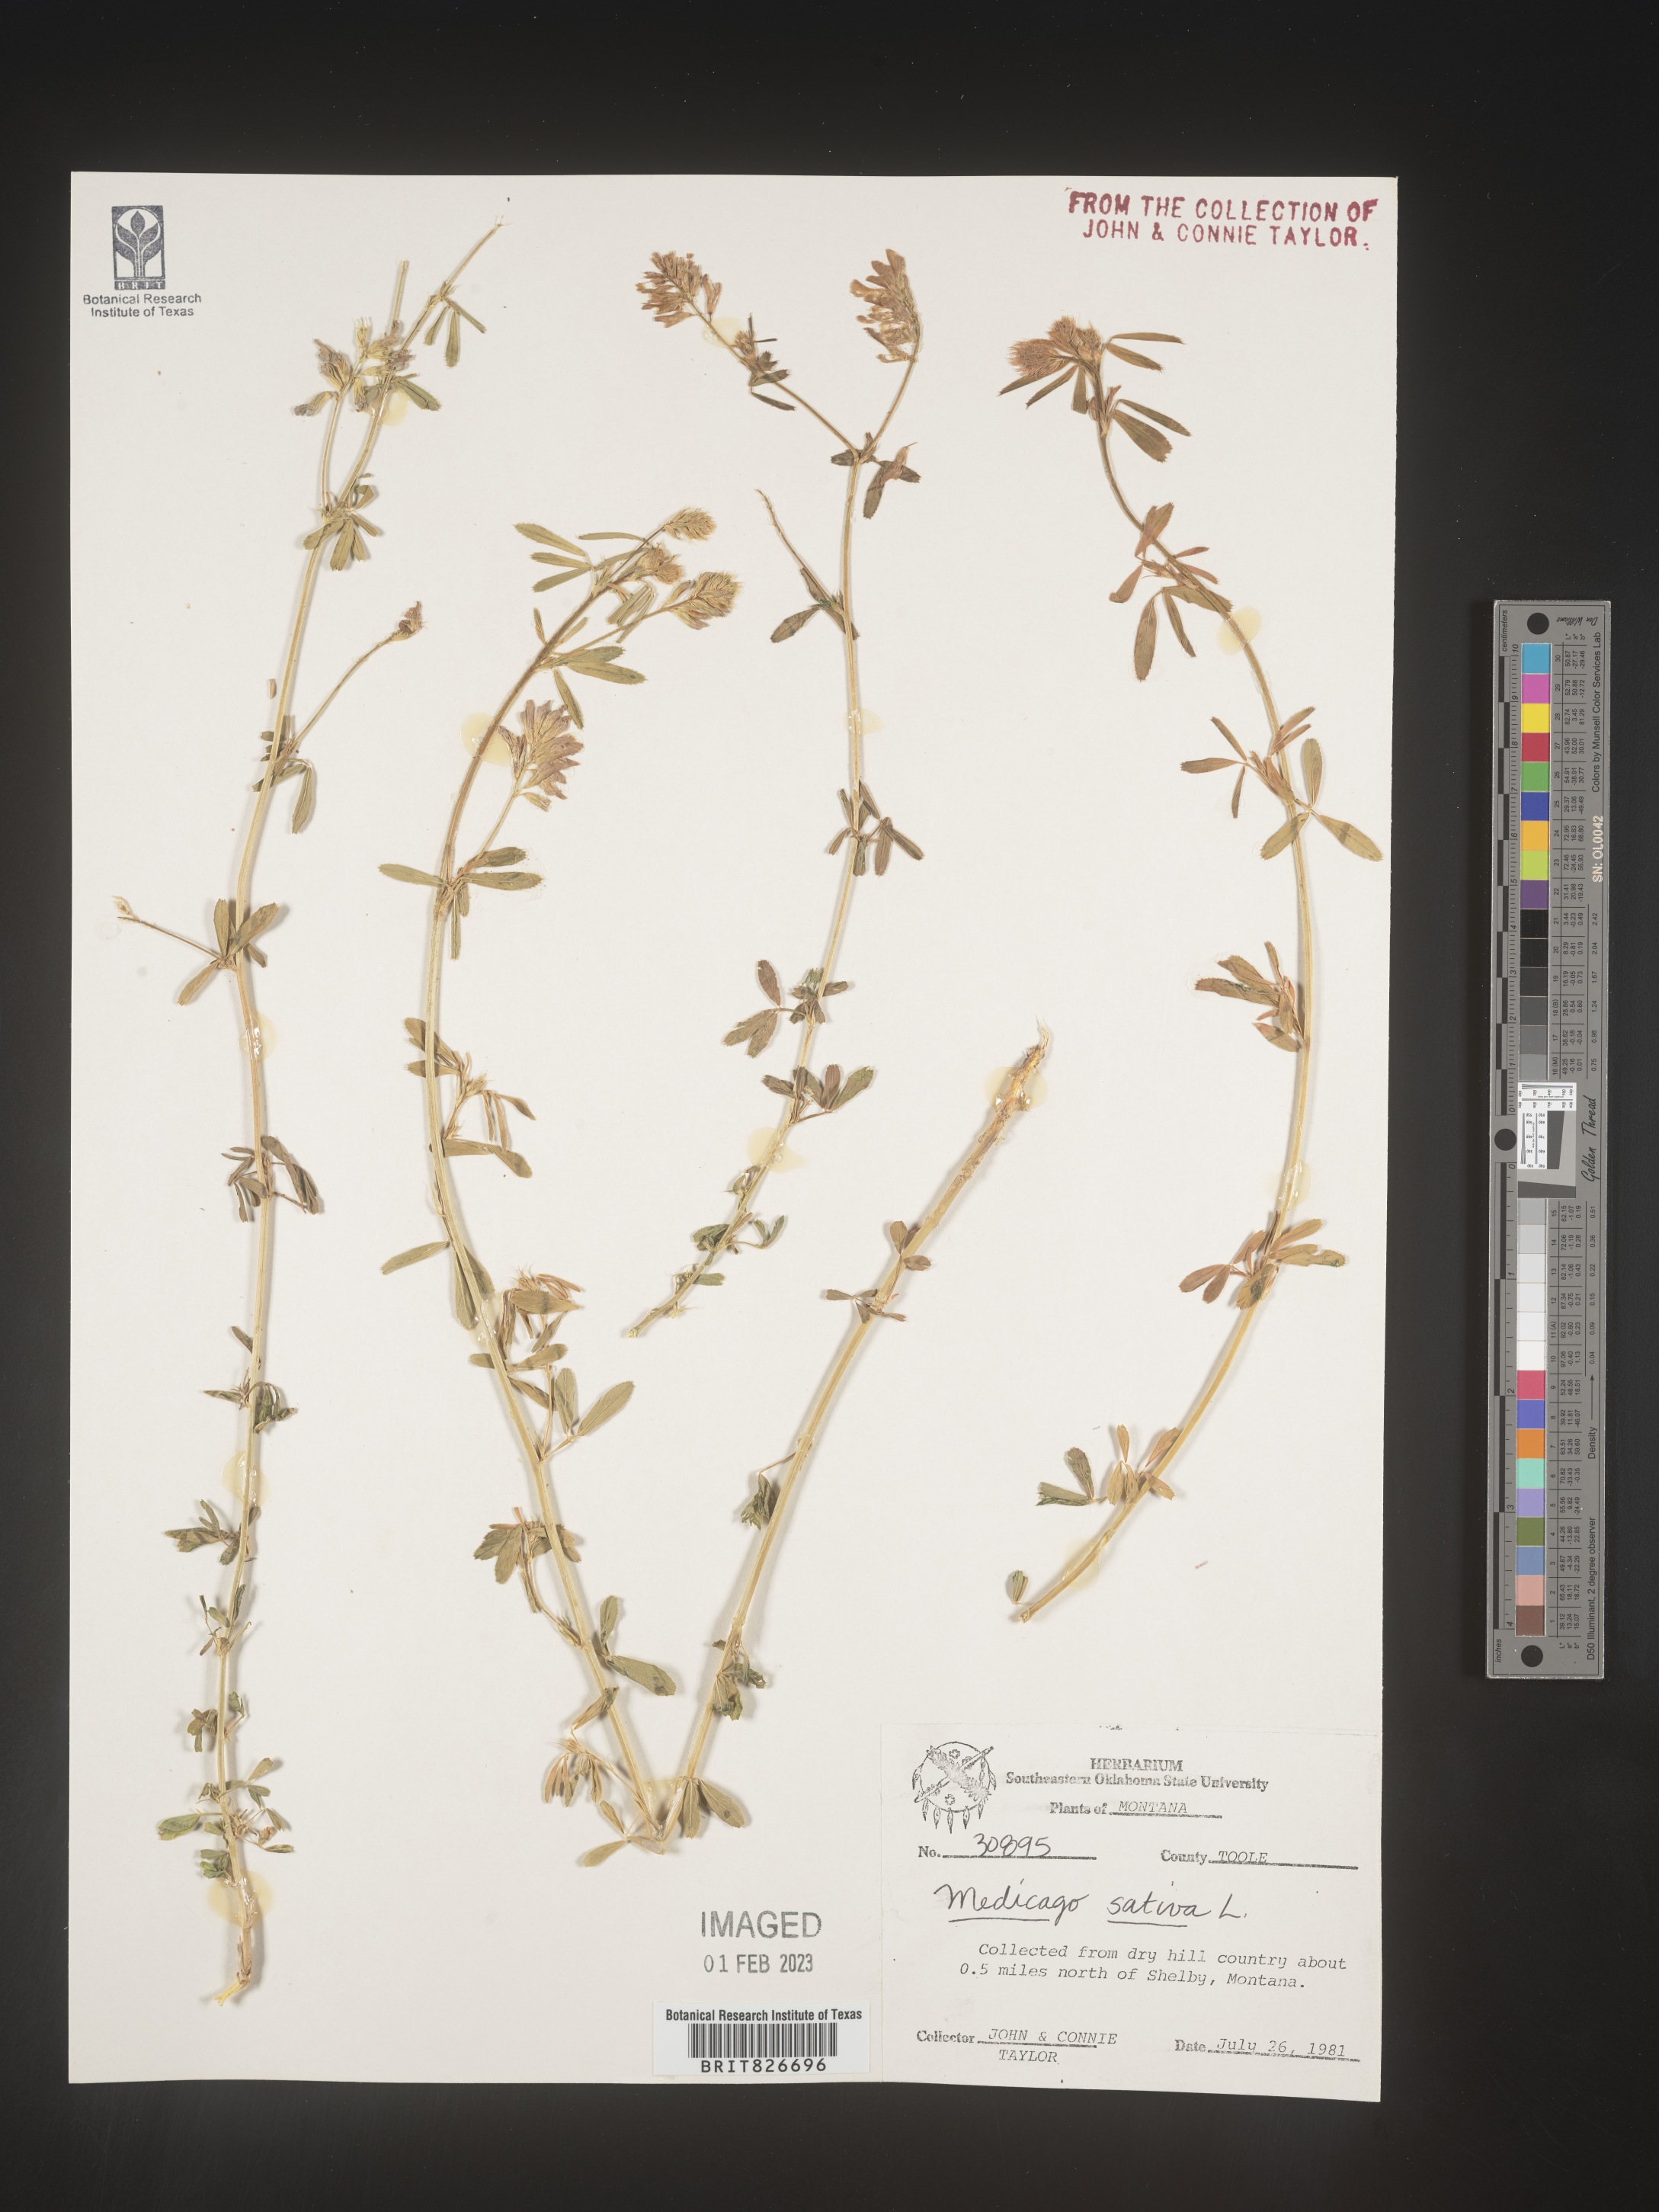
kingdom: Plantae
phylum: Tracheophyta
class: Magnoliopsida
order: Fabales
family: Fabaceae
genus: Medicago
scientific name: Medicago sativa
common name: Alfalfa
